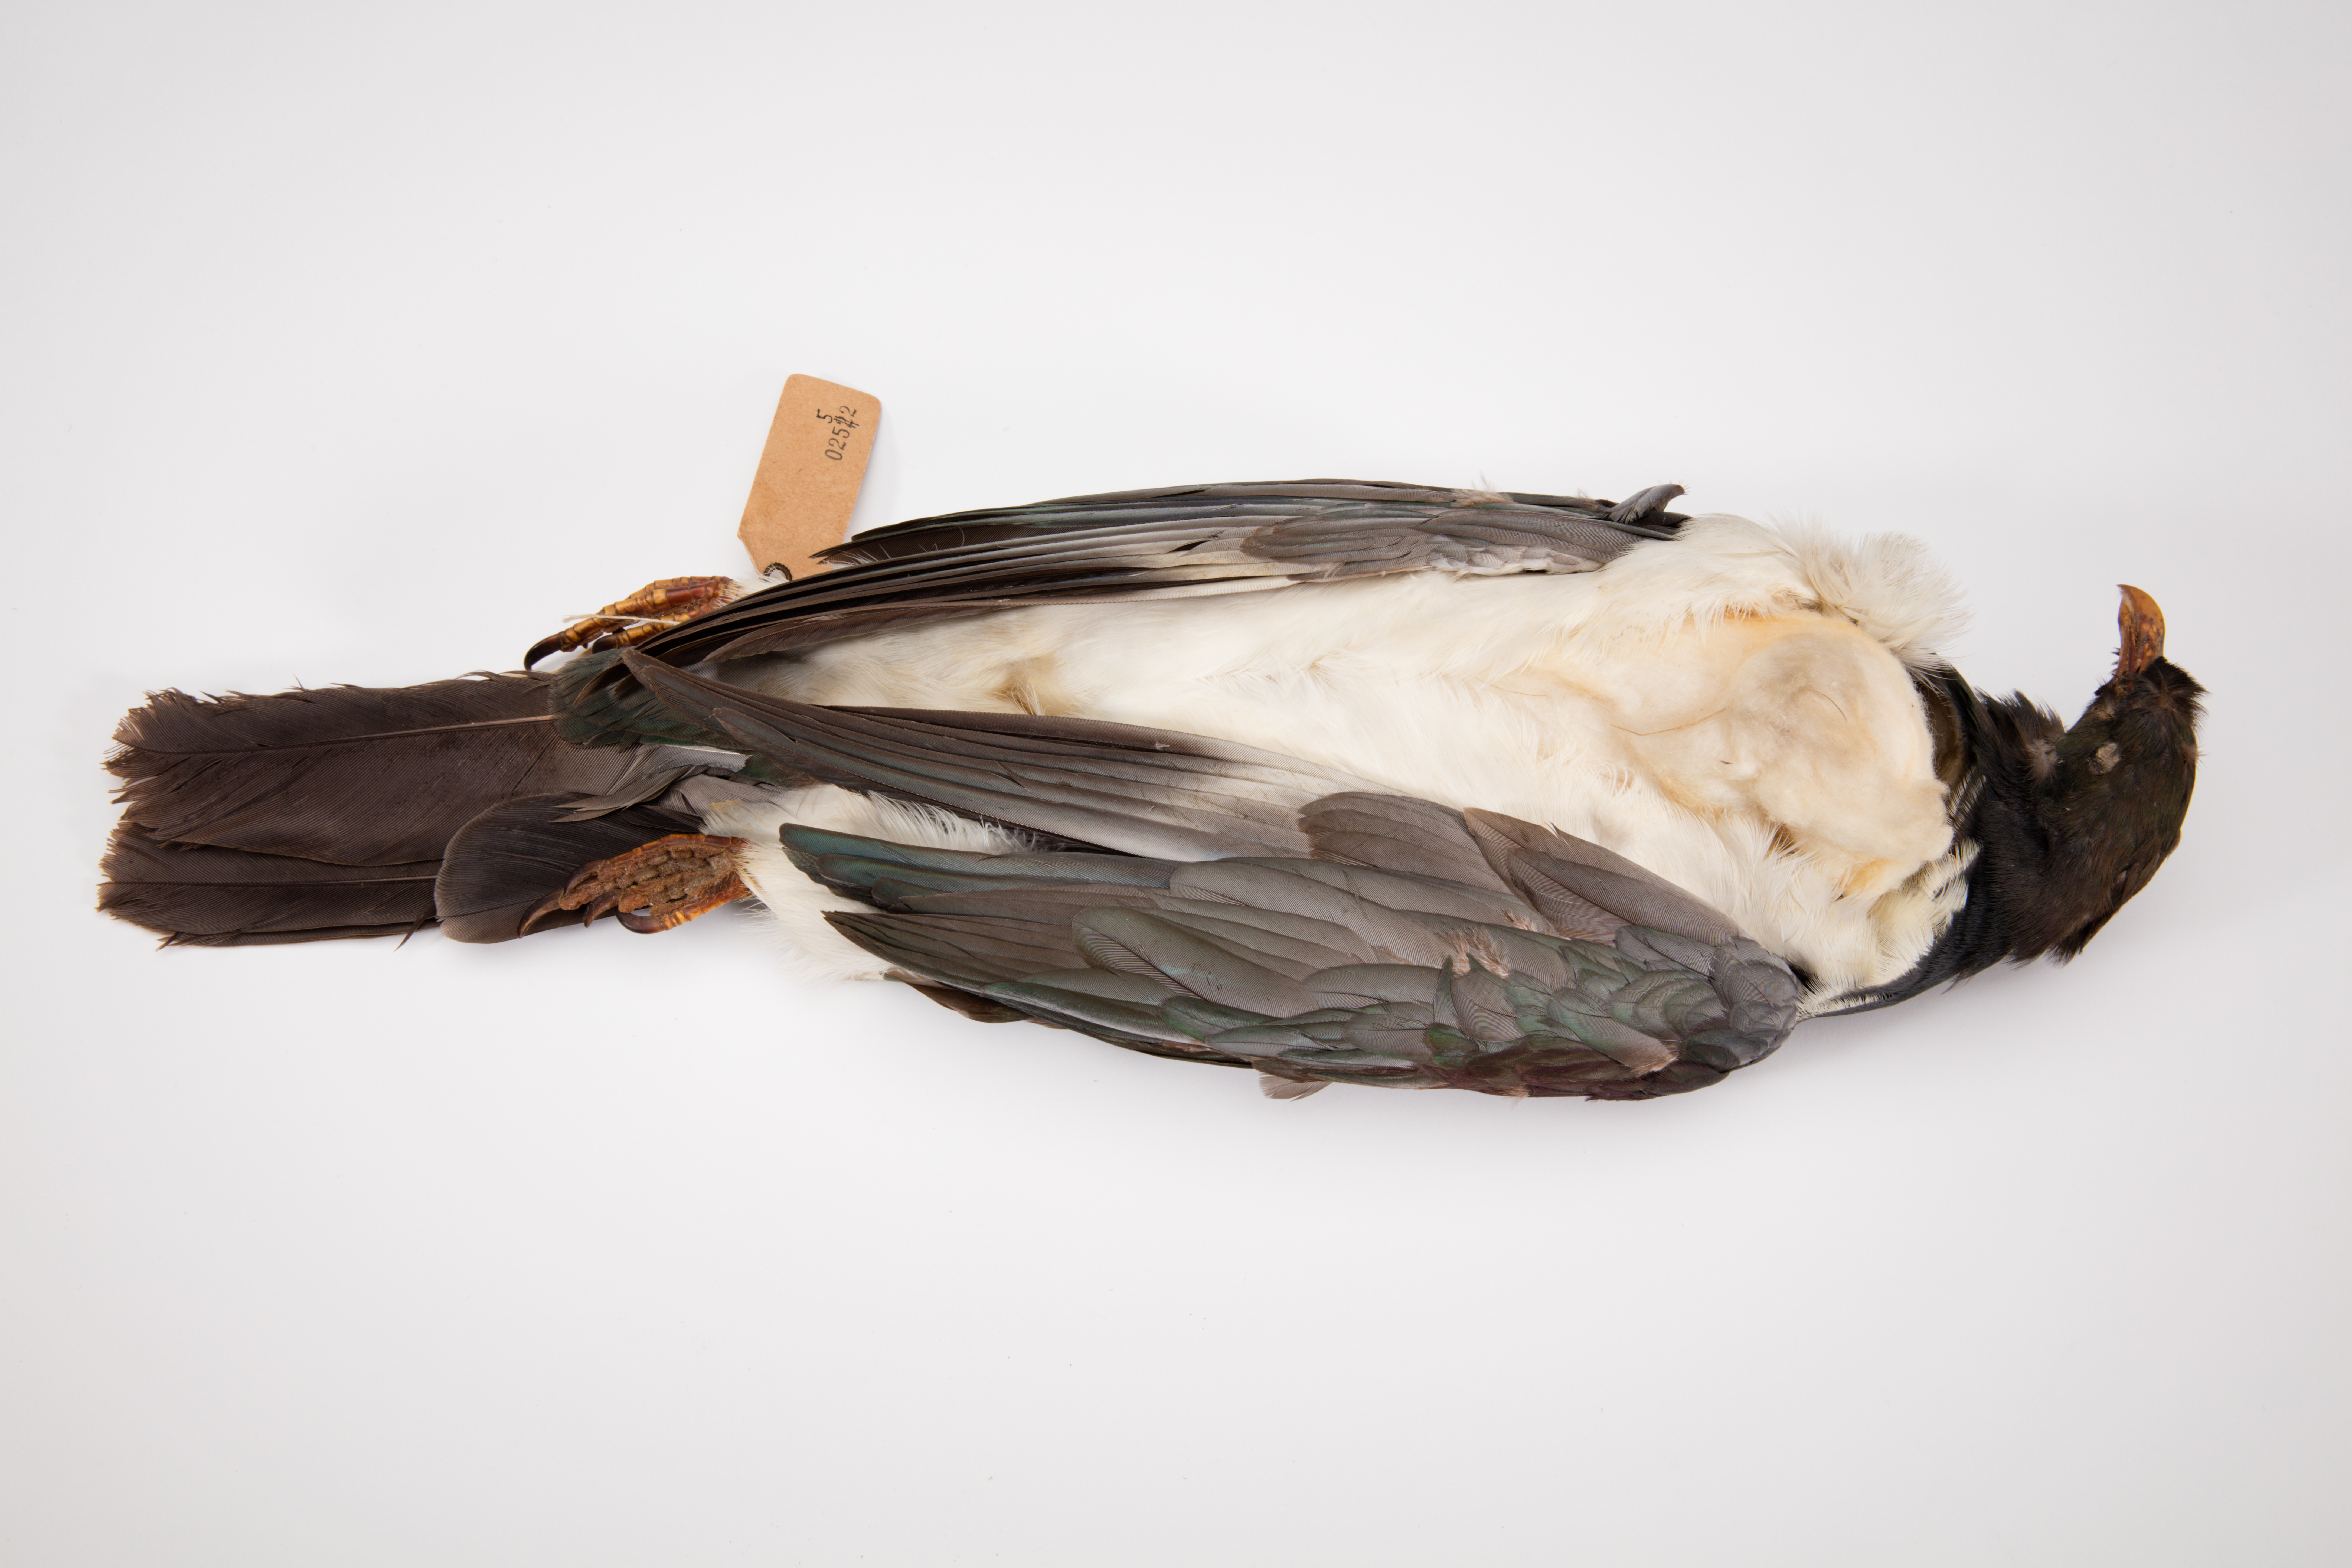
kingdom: Animalia
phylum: Chordata
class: Aves
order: Columbiformes
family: Columbidae
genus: Hemiphaga
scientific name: Hemiphaga novaeseelandiae
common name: New zealand pigeon
